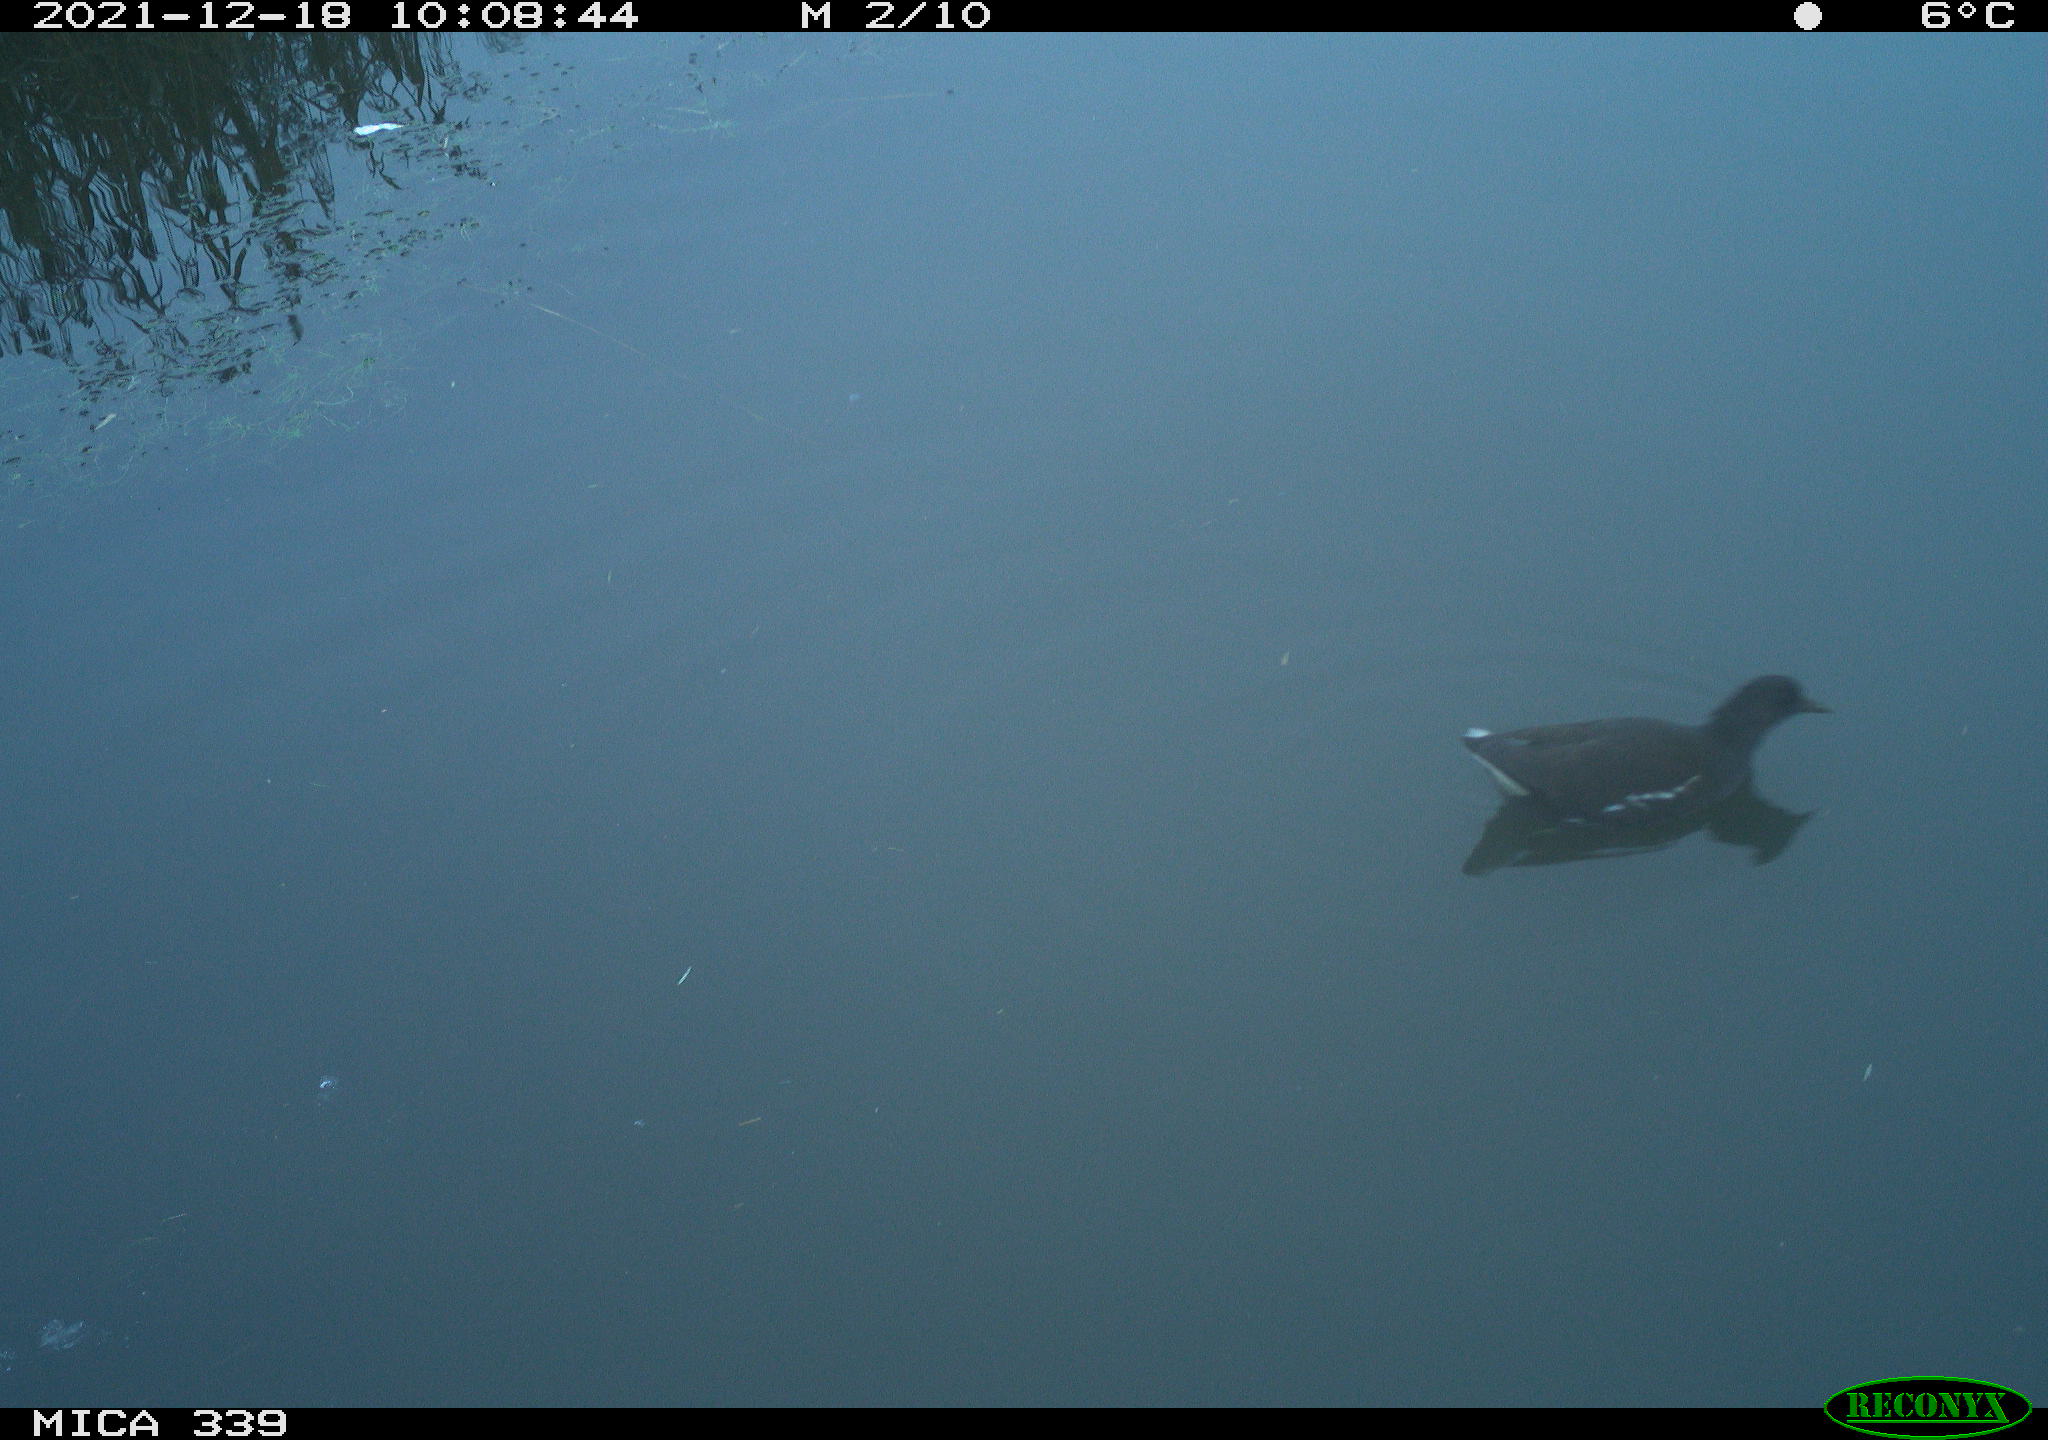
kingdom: Animalia
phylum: Chordata
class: Aves
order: Gruiformes
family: Rallidae
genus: Gallinula
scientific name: Gallinula chloropus
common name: Common moorhen
